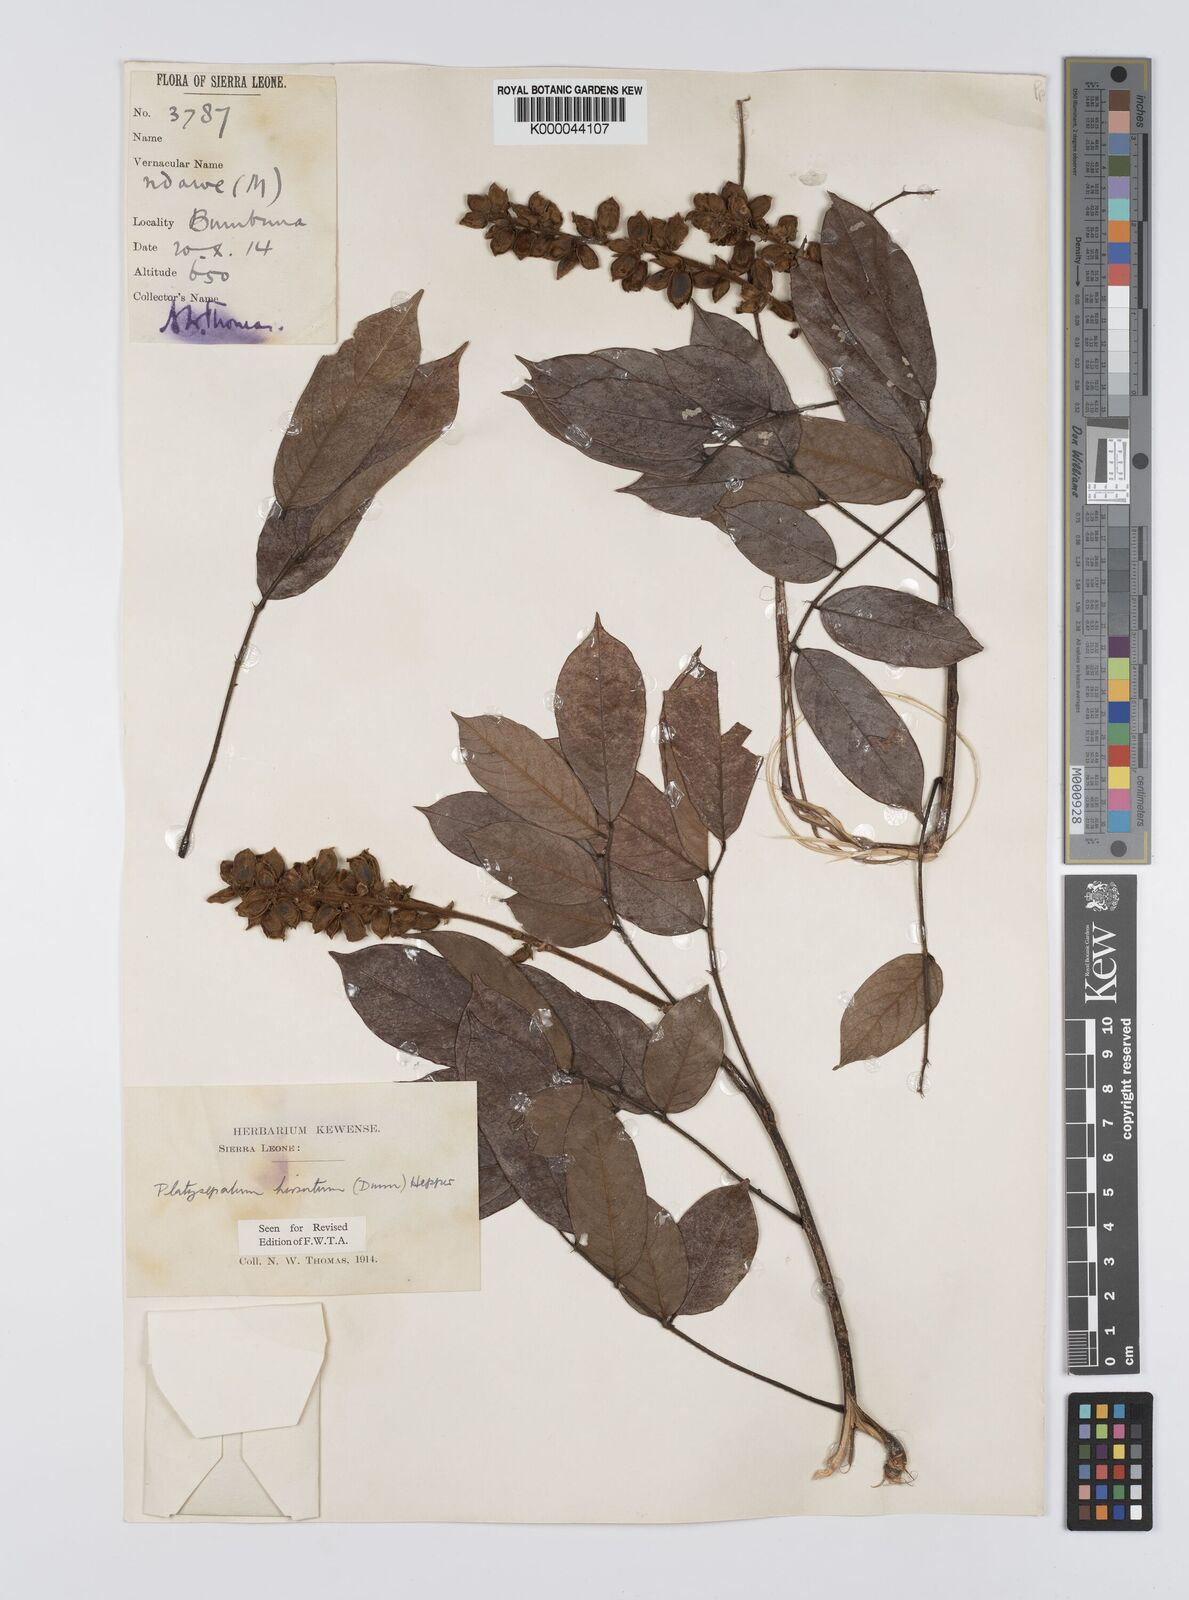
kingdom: Plantae
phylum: Tracheophyta
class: Magnoliopsida
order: Fabales
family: Fabaceae
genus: Platysepalum
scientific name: Platysepalum hirsutum
